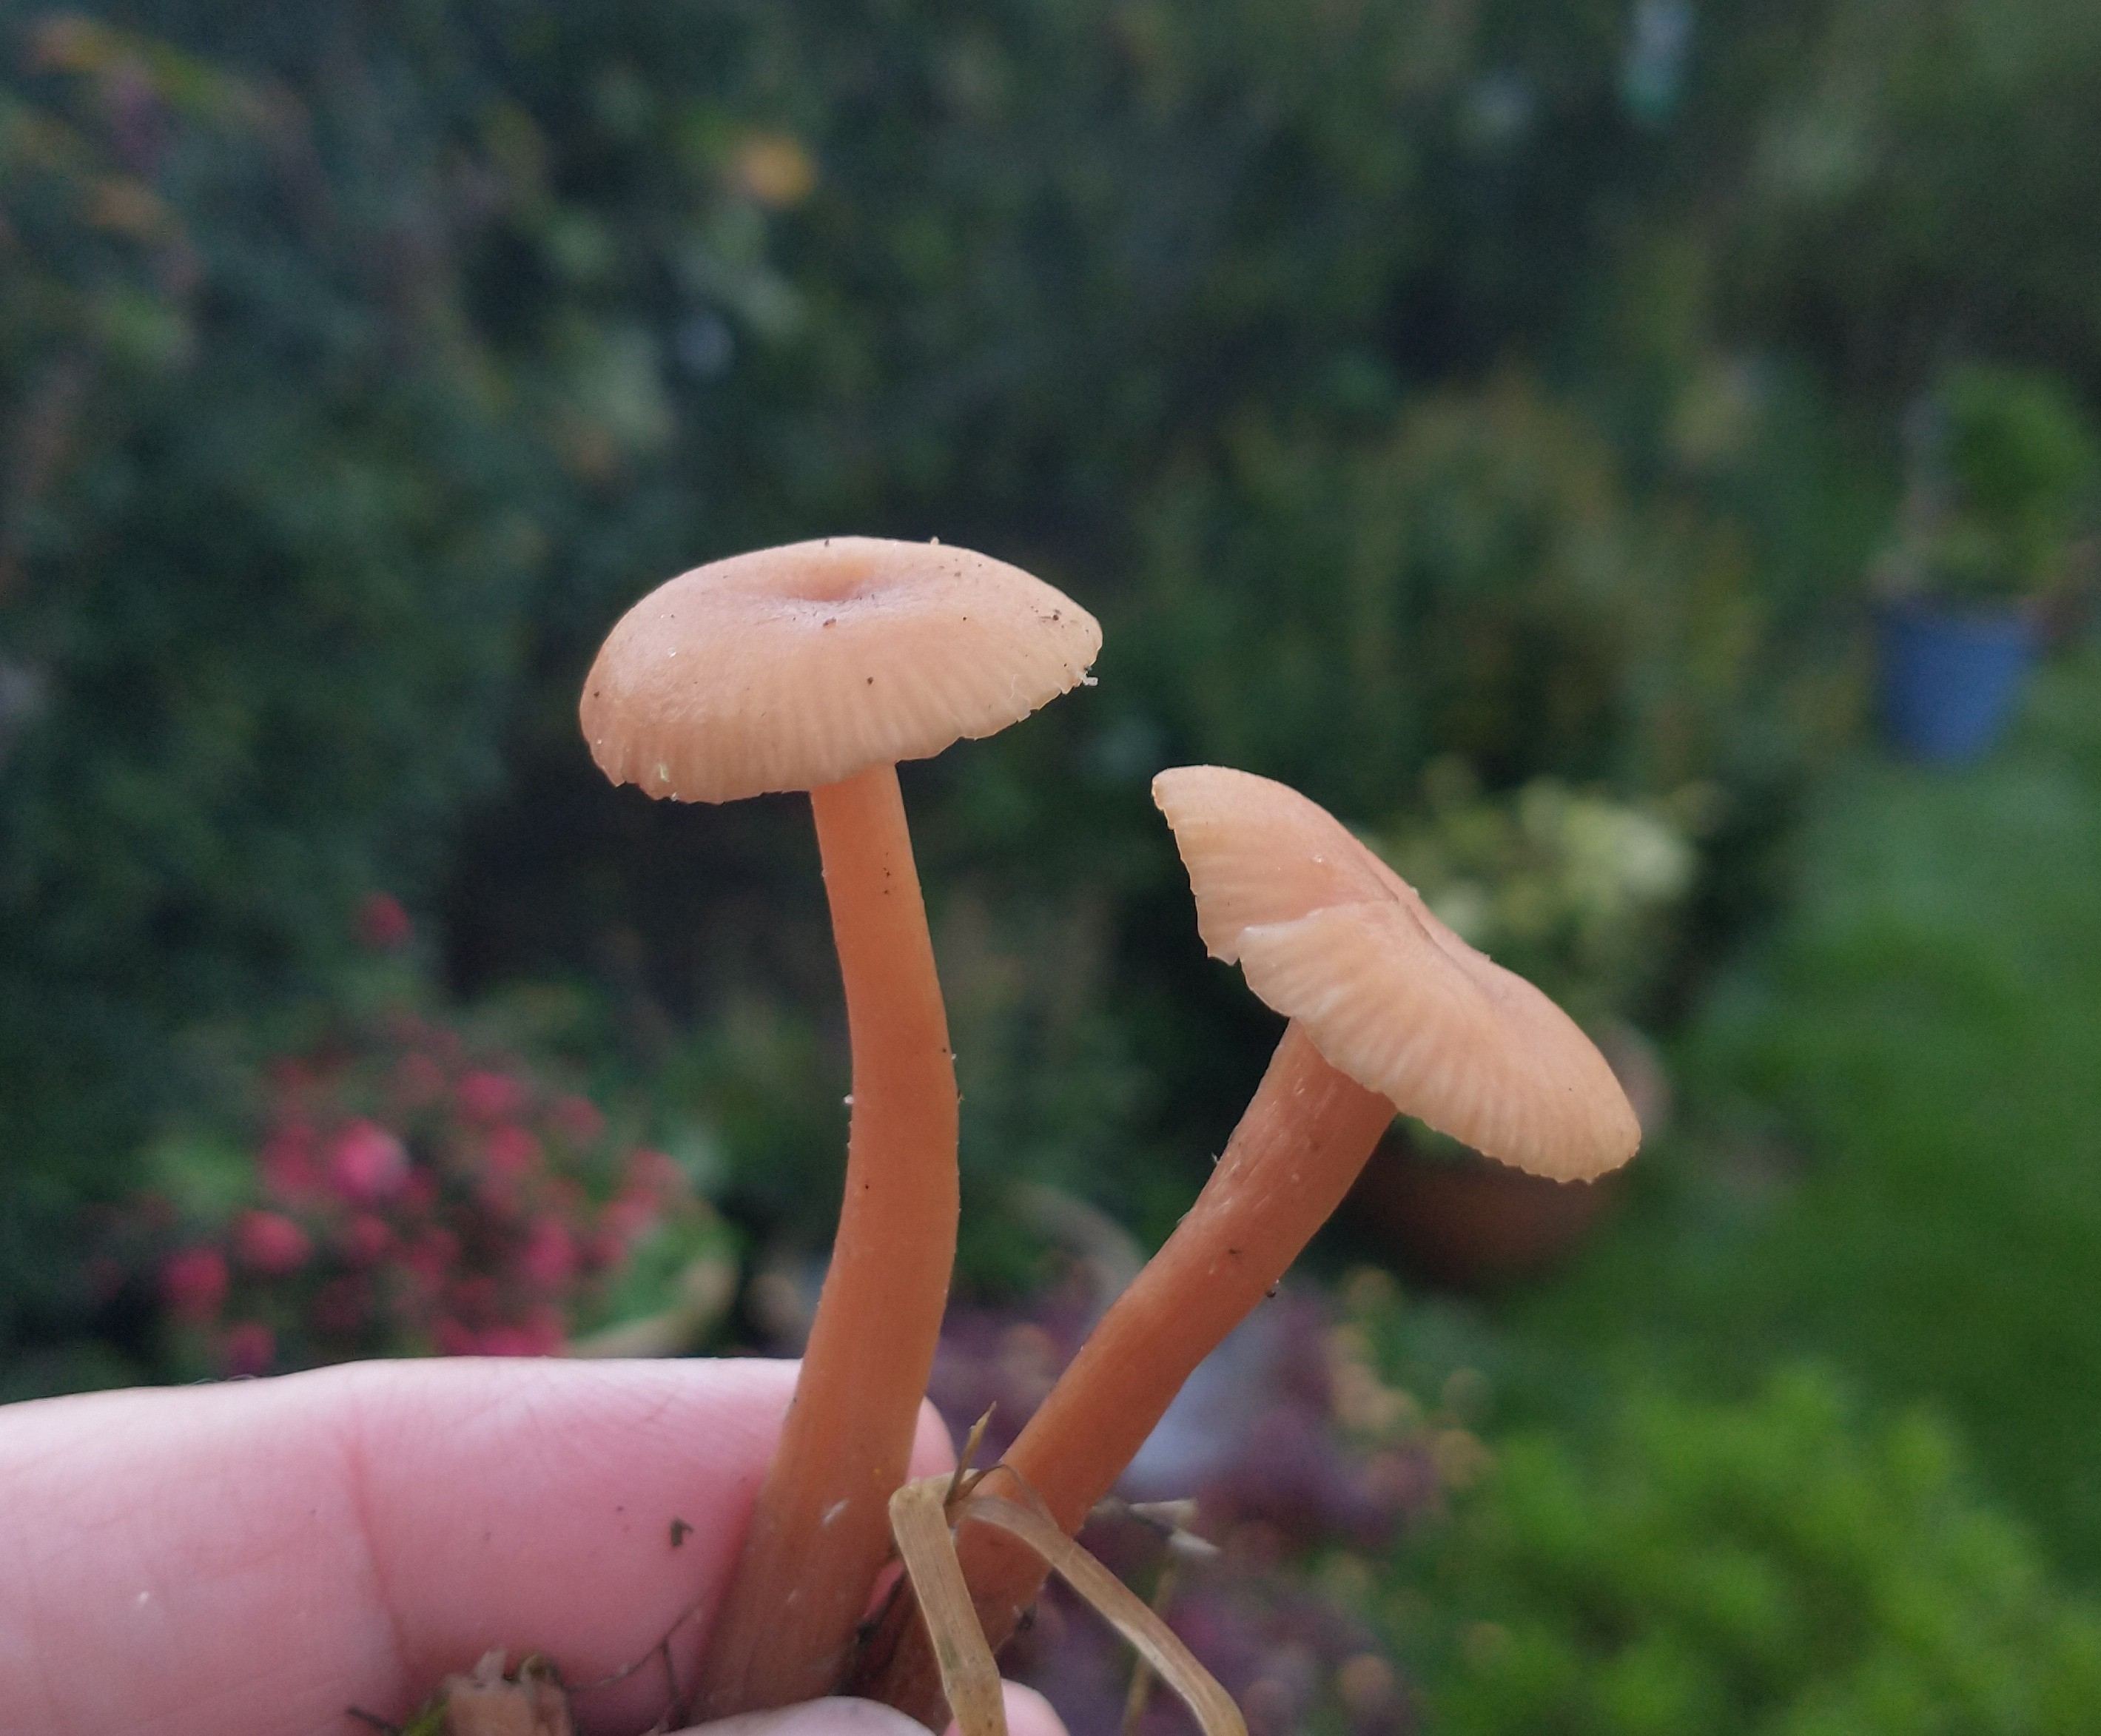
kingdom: Fungi
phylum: Basidiomycota
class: Agaricomycetes
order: Agaricales
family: Hydnangiaceae
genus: Laccaria
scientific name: Laccaria laccata
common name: rød ametysthat
